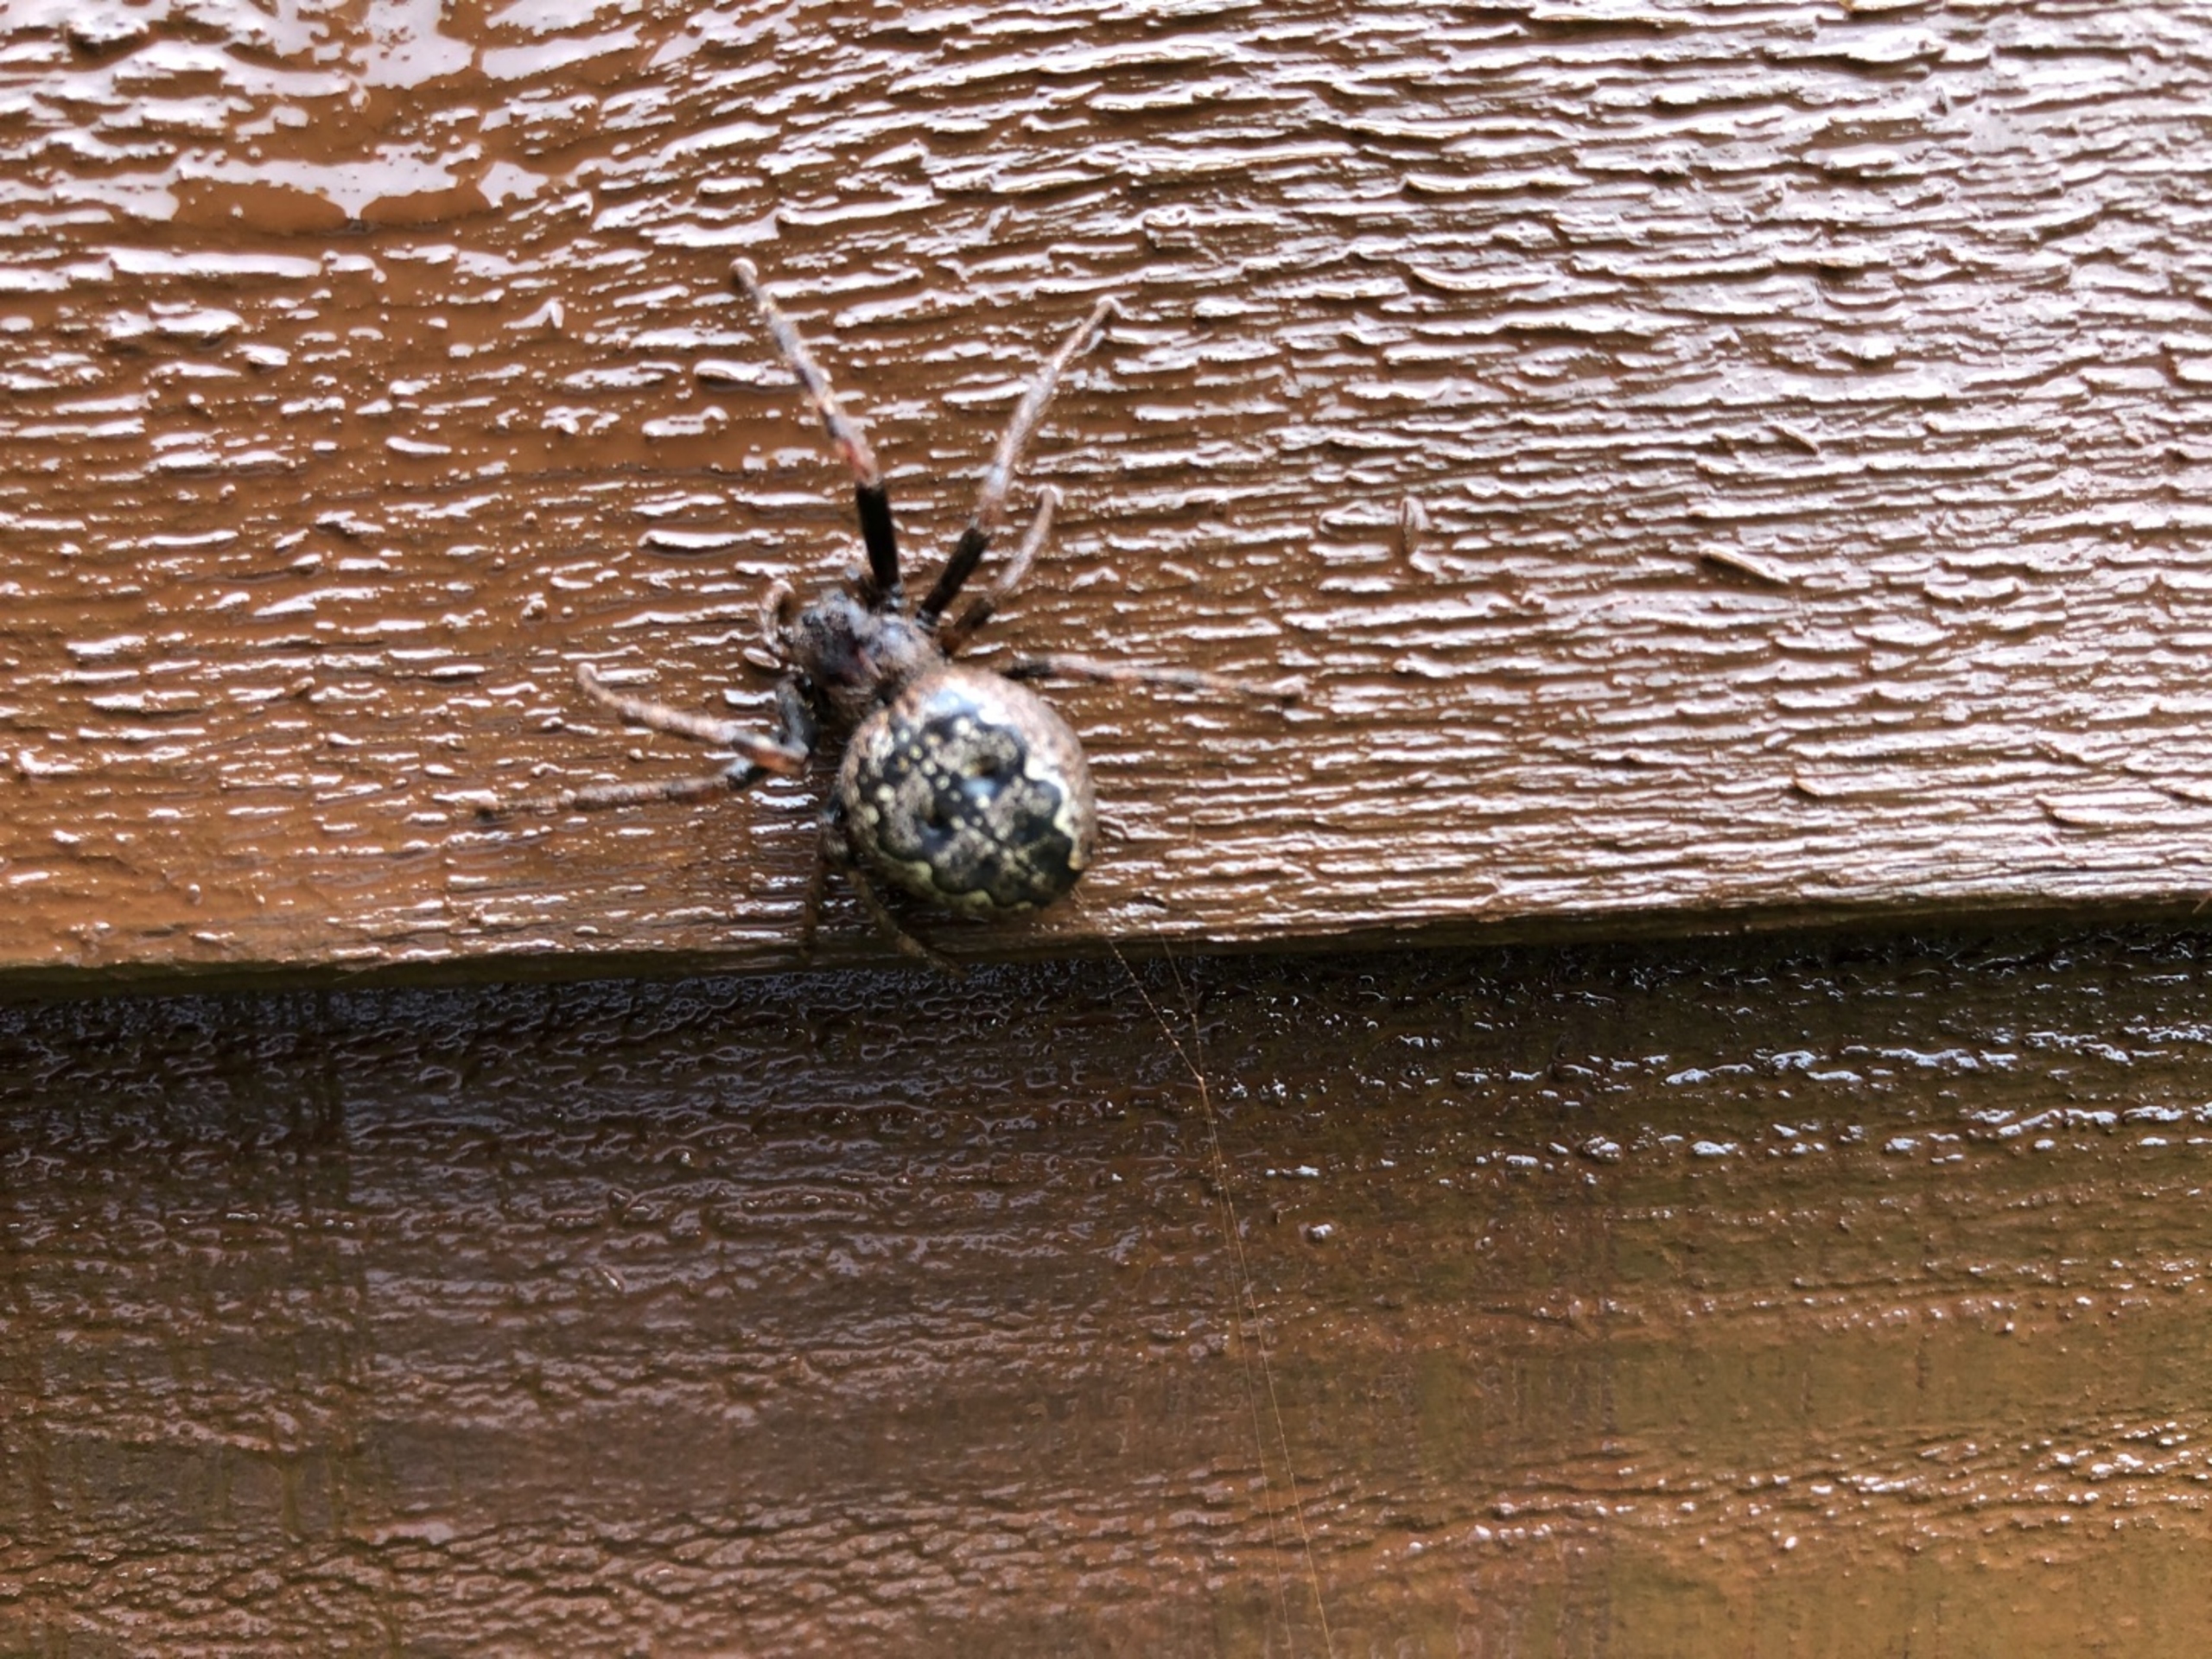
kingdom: Animalia
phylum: Arthropoda
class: Arachnida
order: Araneae
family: Araneidae
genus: Nuctenea
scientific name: Nuctenea umbratica
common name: Flad hjulspinder
